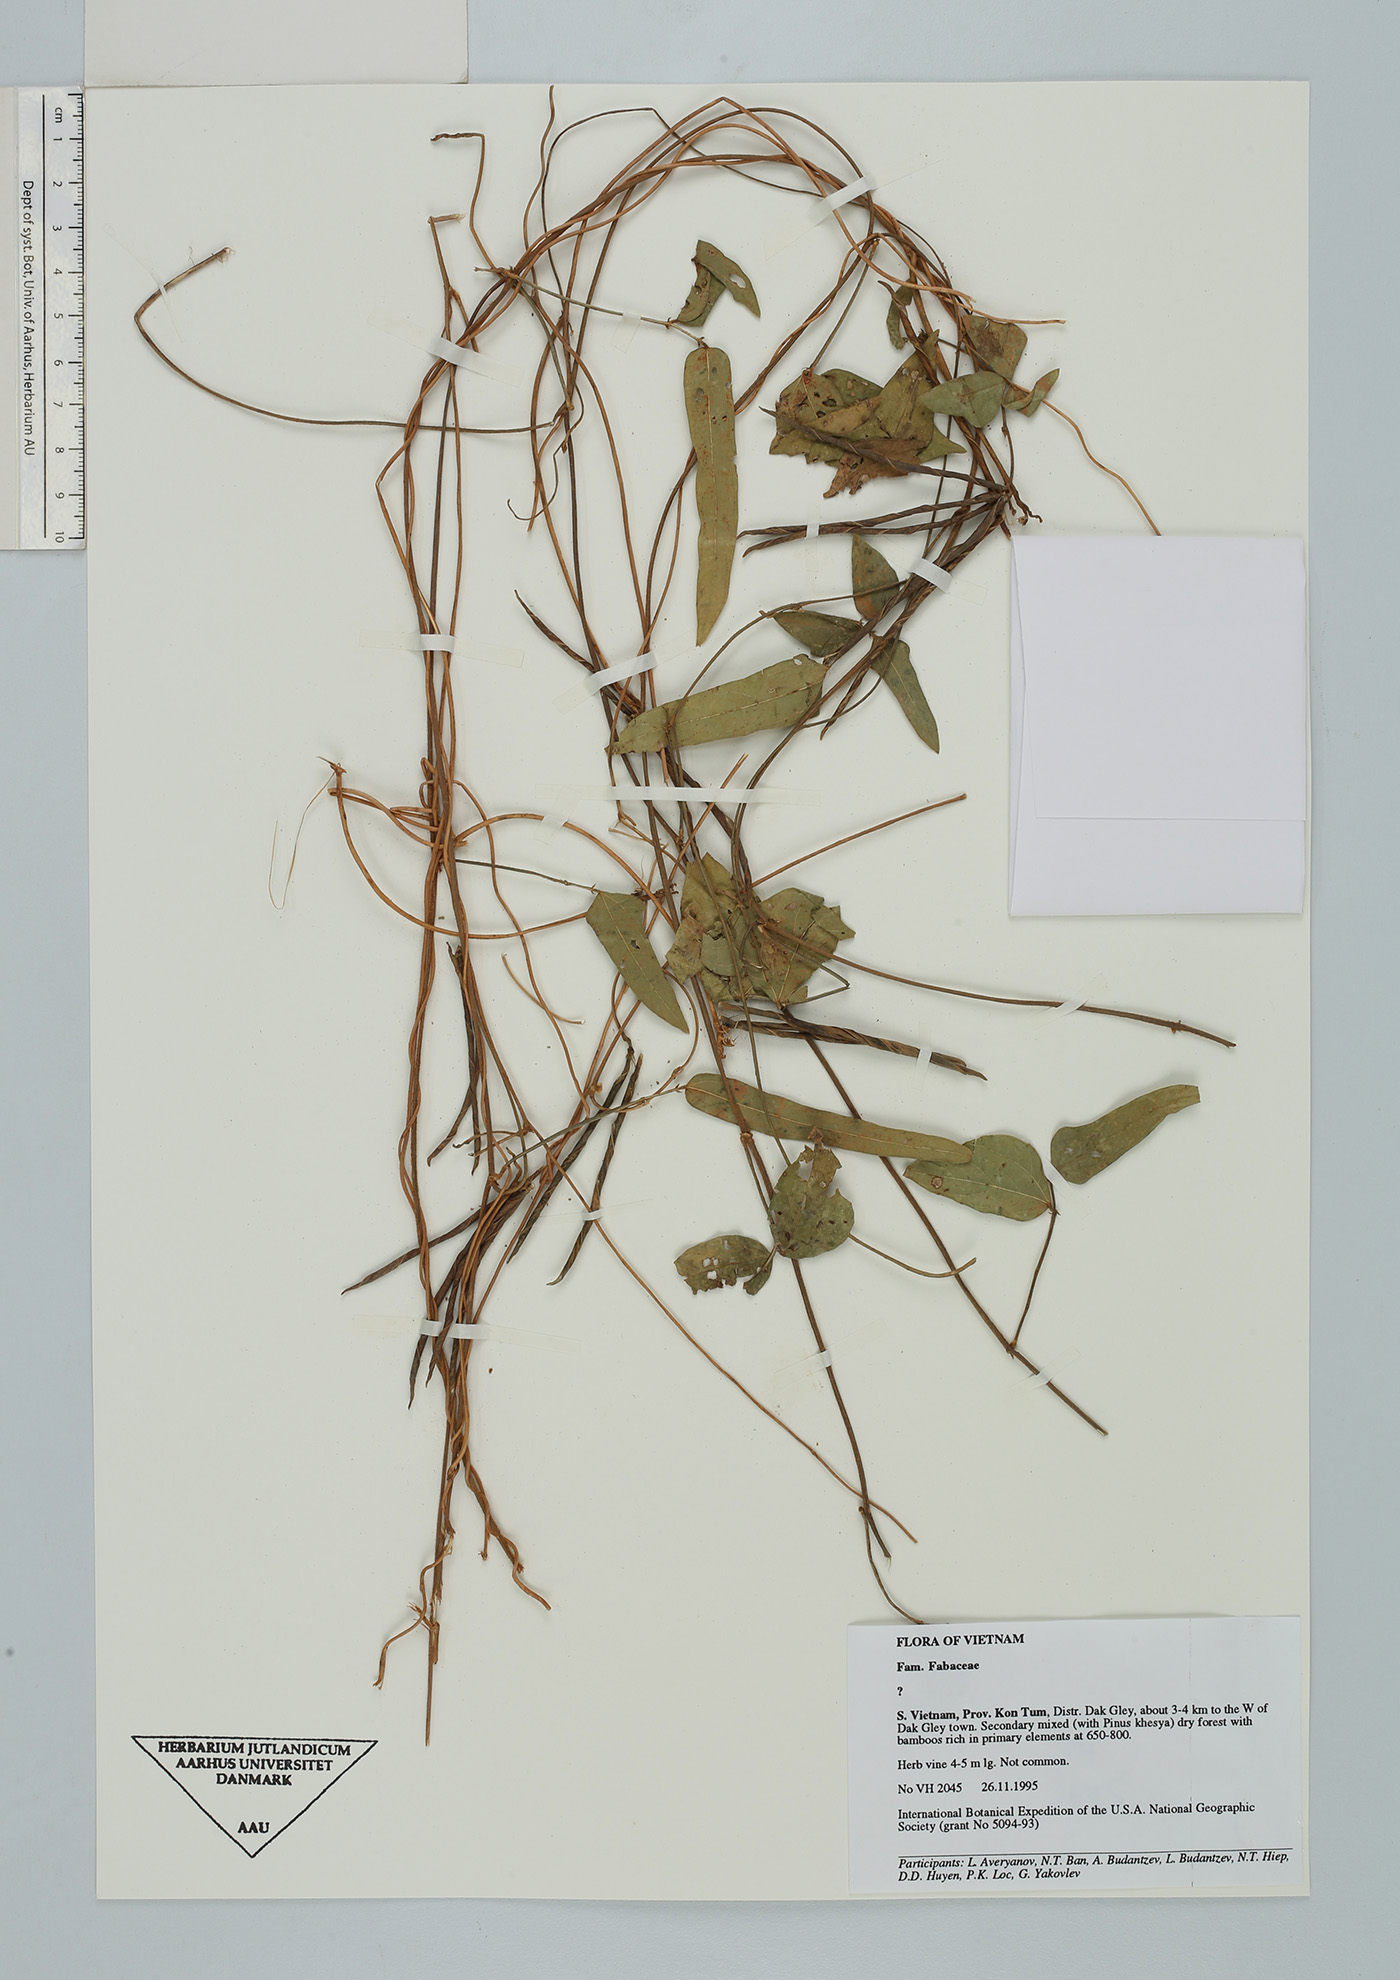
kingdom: Plantae
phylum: Tracheophyta
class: Magnoliopsida
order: Fabales
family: Fabaceae
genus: Teramnus
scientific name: Teramnus
